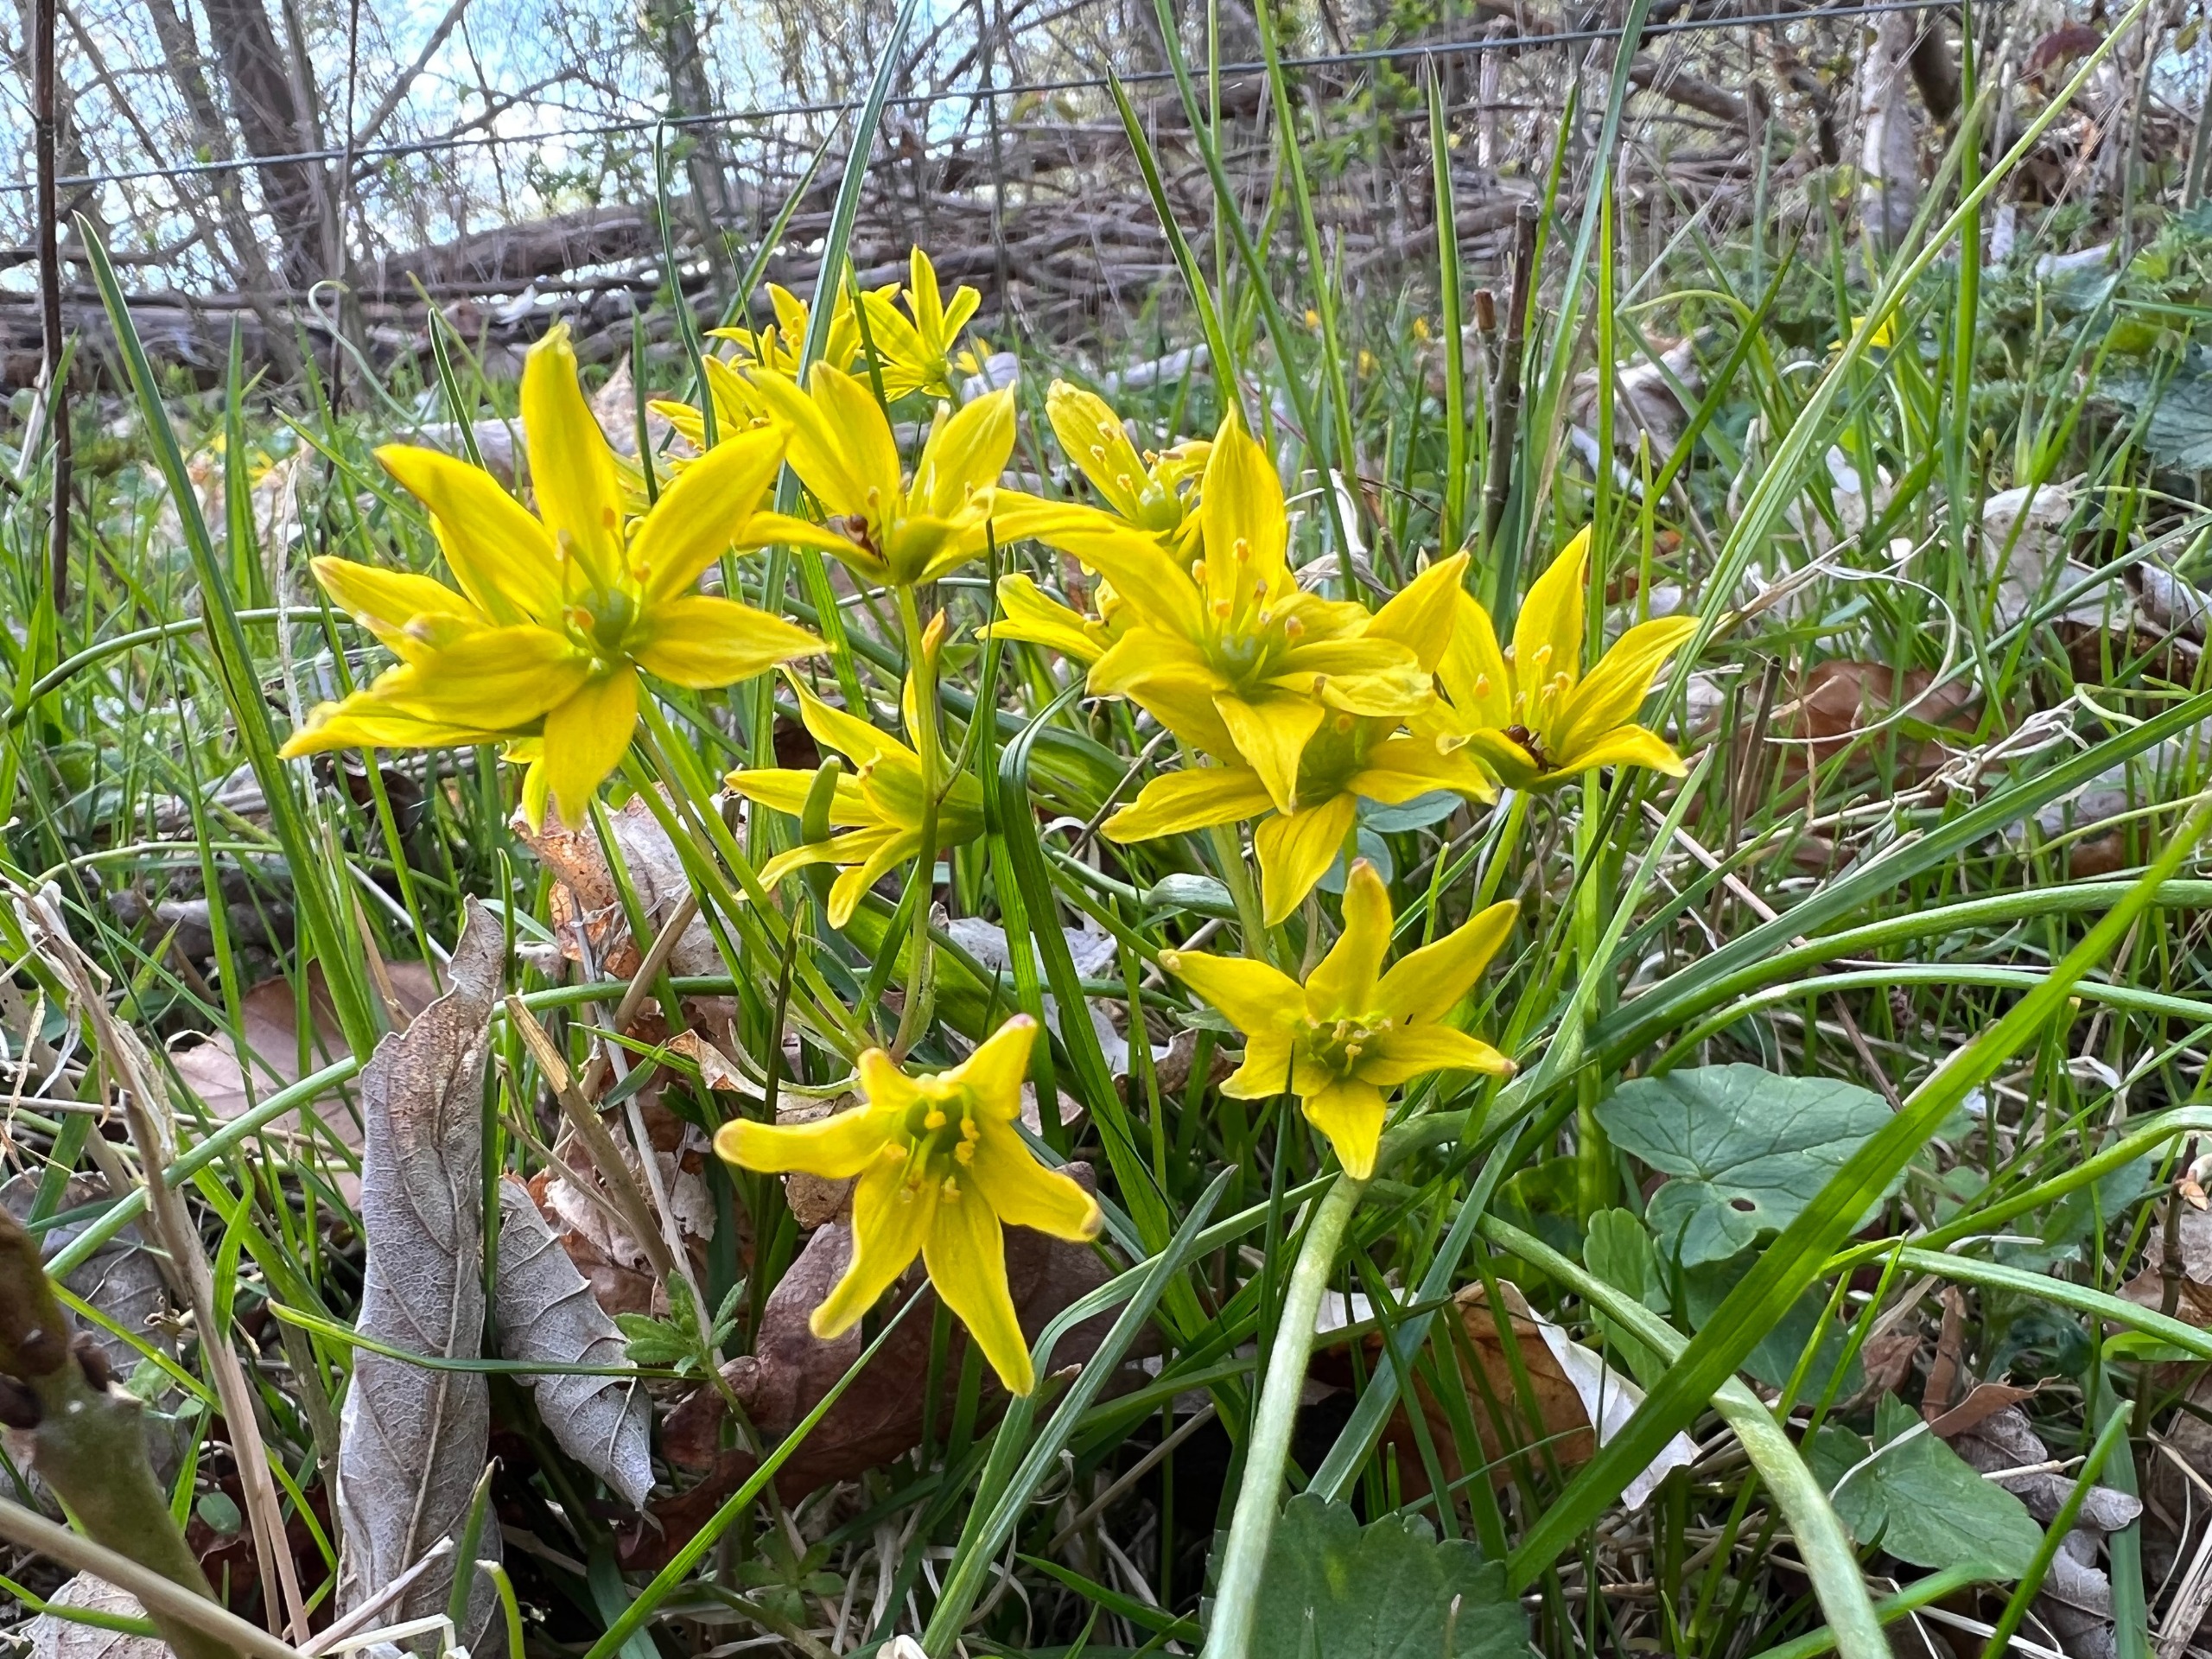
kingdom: Plantae
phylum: Tracheophyta
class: Liliopsida
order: Liliales
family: Liliaceae
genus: Gagea
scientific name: Gagea spathacea
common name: Hylster-guldstjerne
